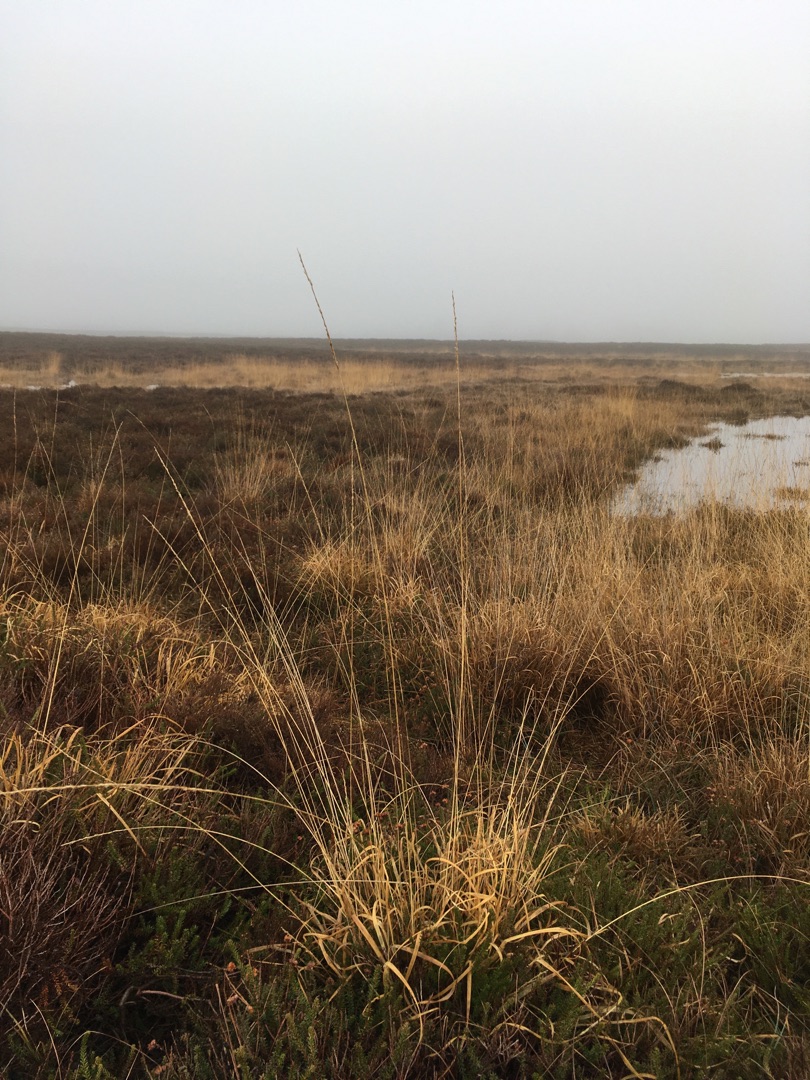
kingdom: Plantae
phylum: Tracheophyta
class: Liliopsida
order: Poales
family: Poaceae
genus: Molinia
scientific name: Molinia caerulea
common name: Blåtop
